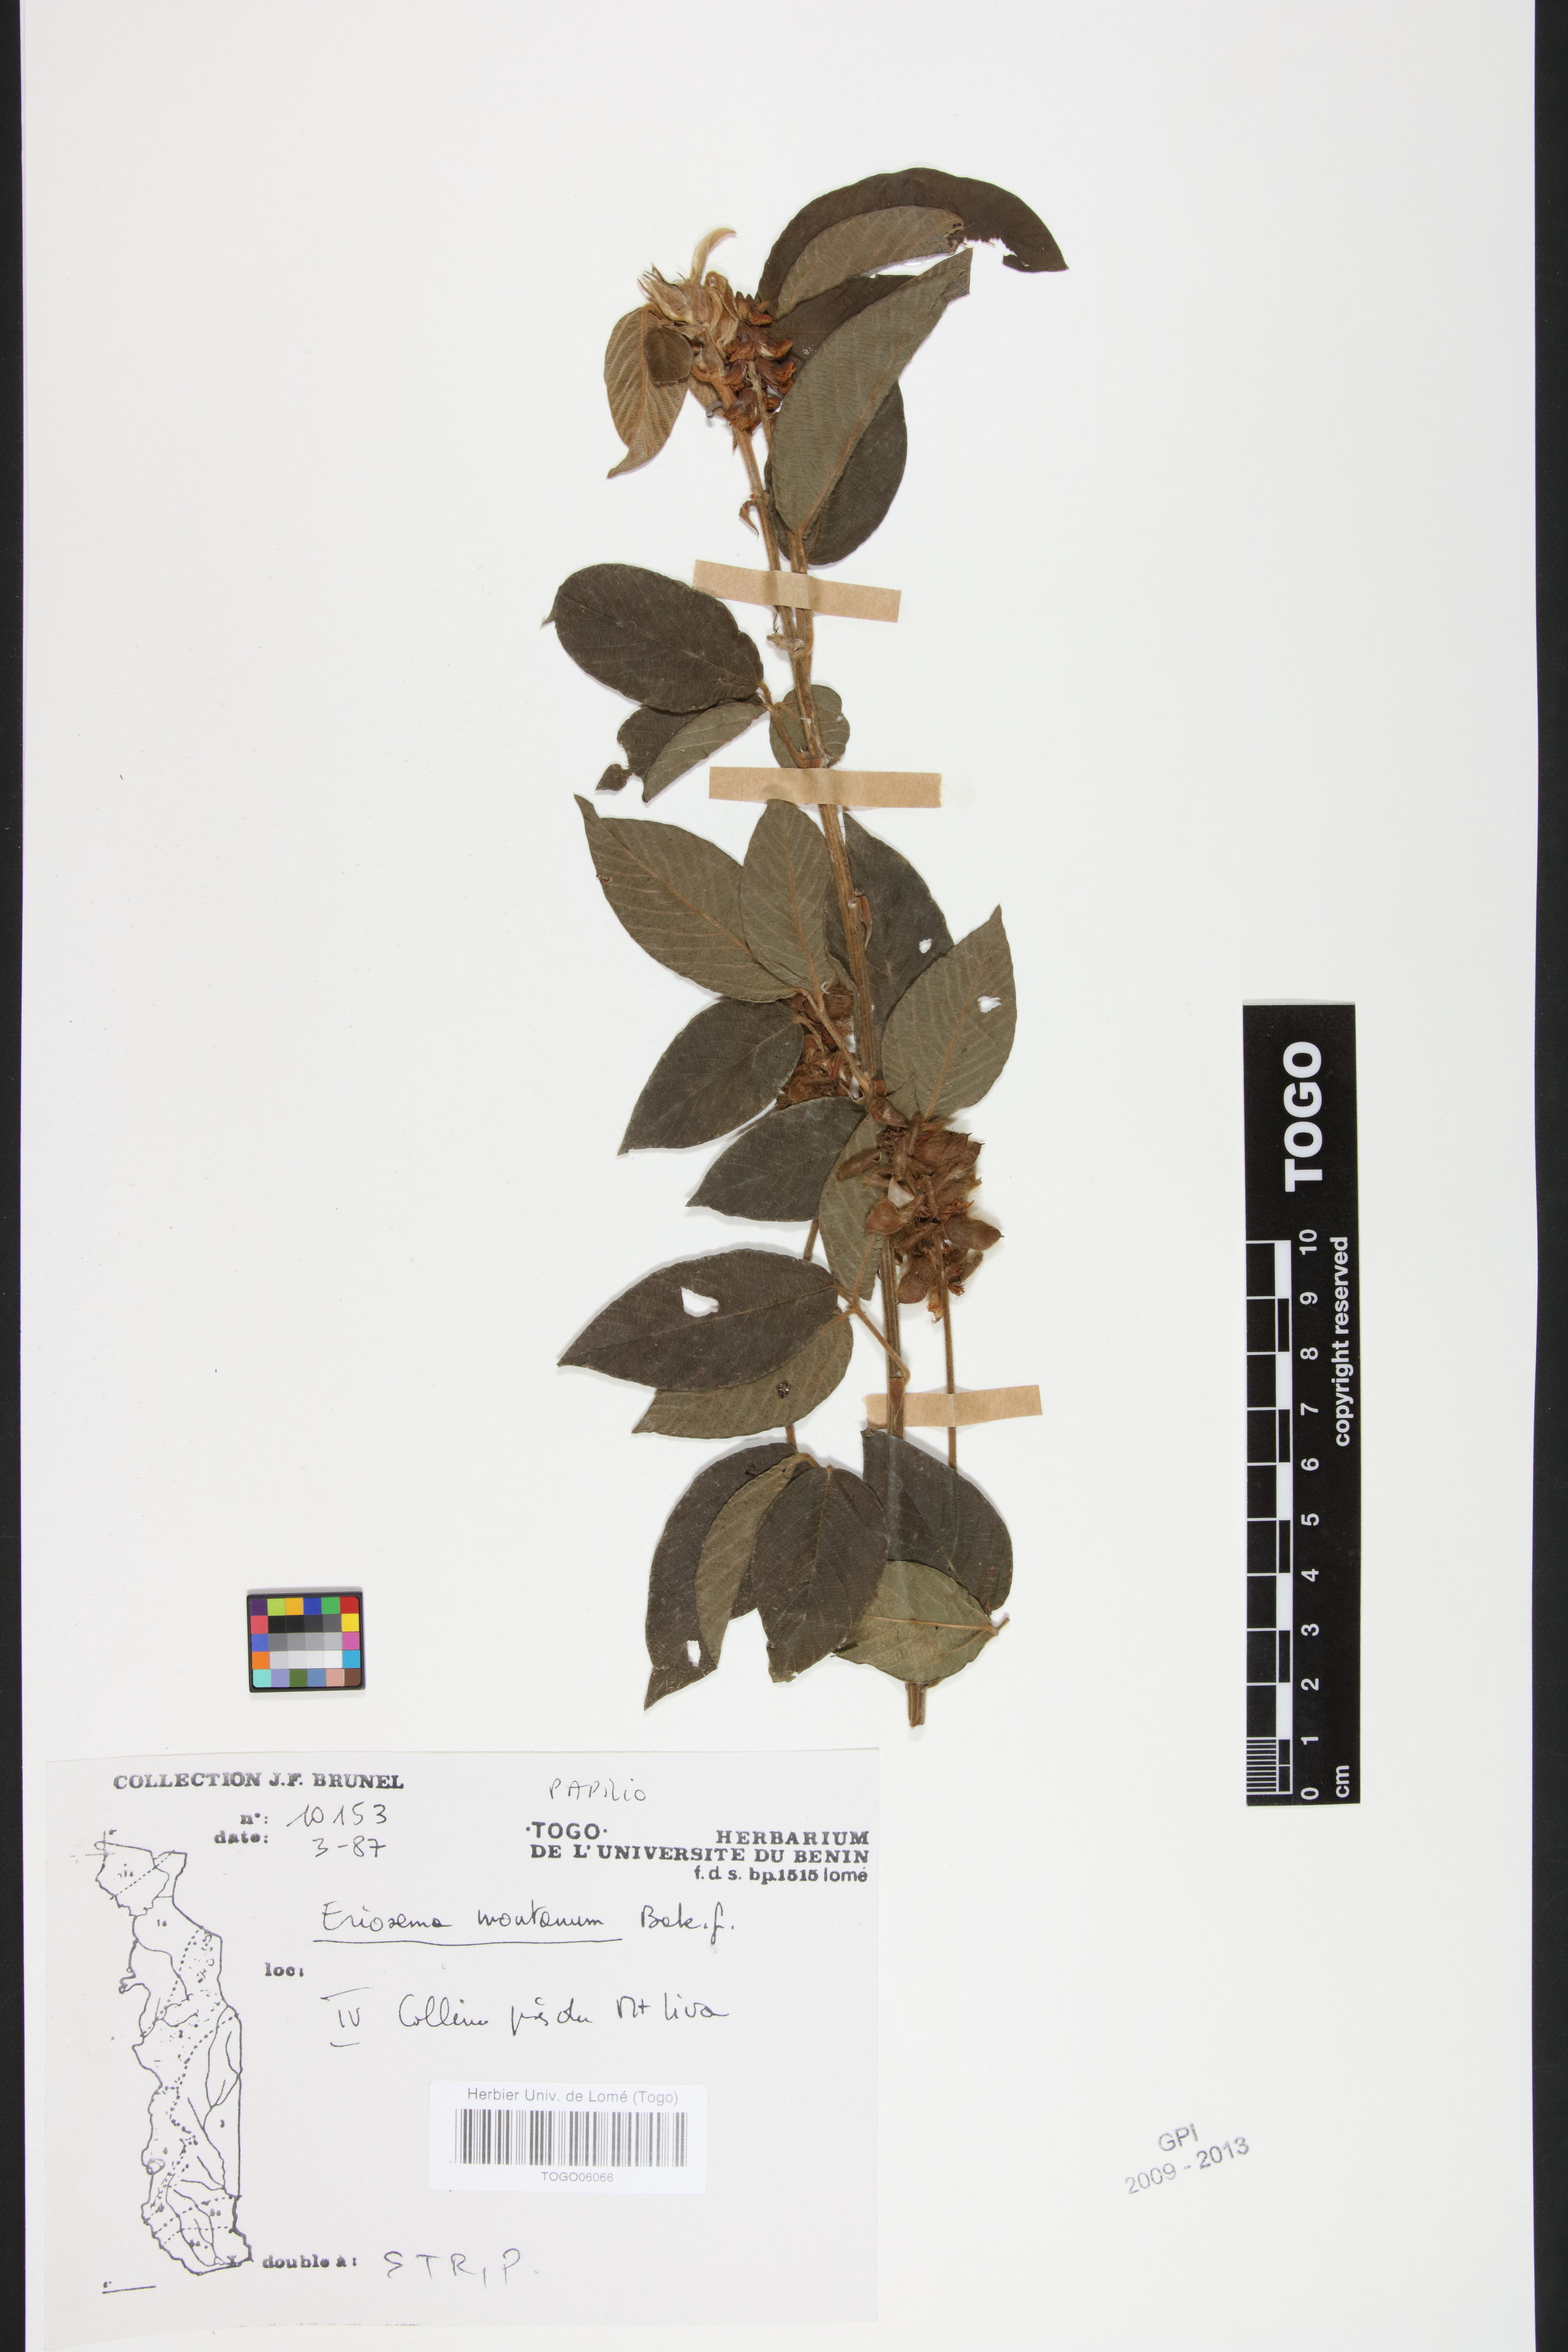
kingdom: Plantae
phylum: Tracheophyta
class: Magnoliopsida
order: Fabales
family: Fabaceae
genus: Eriosema
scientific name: Eriosema montanum
